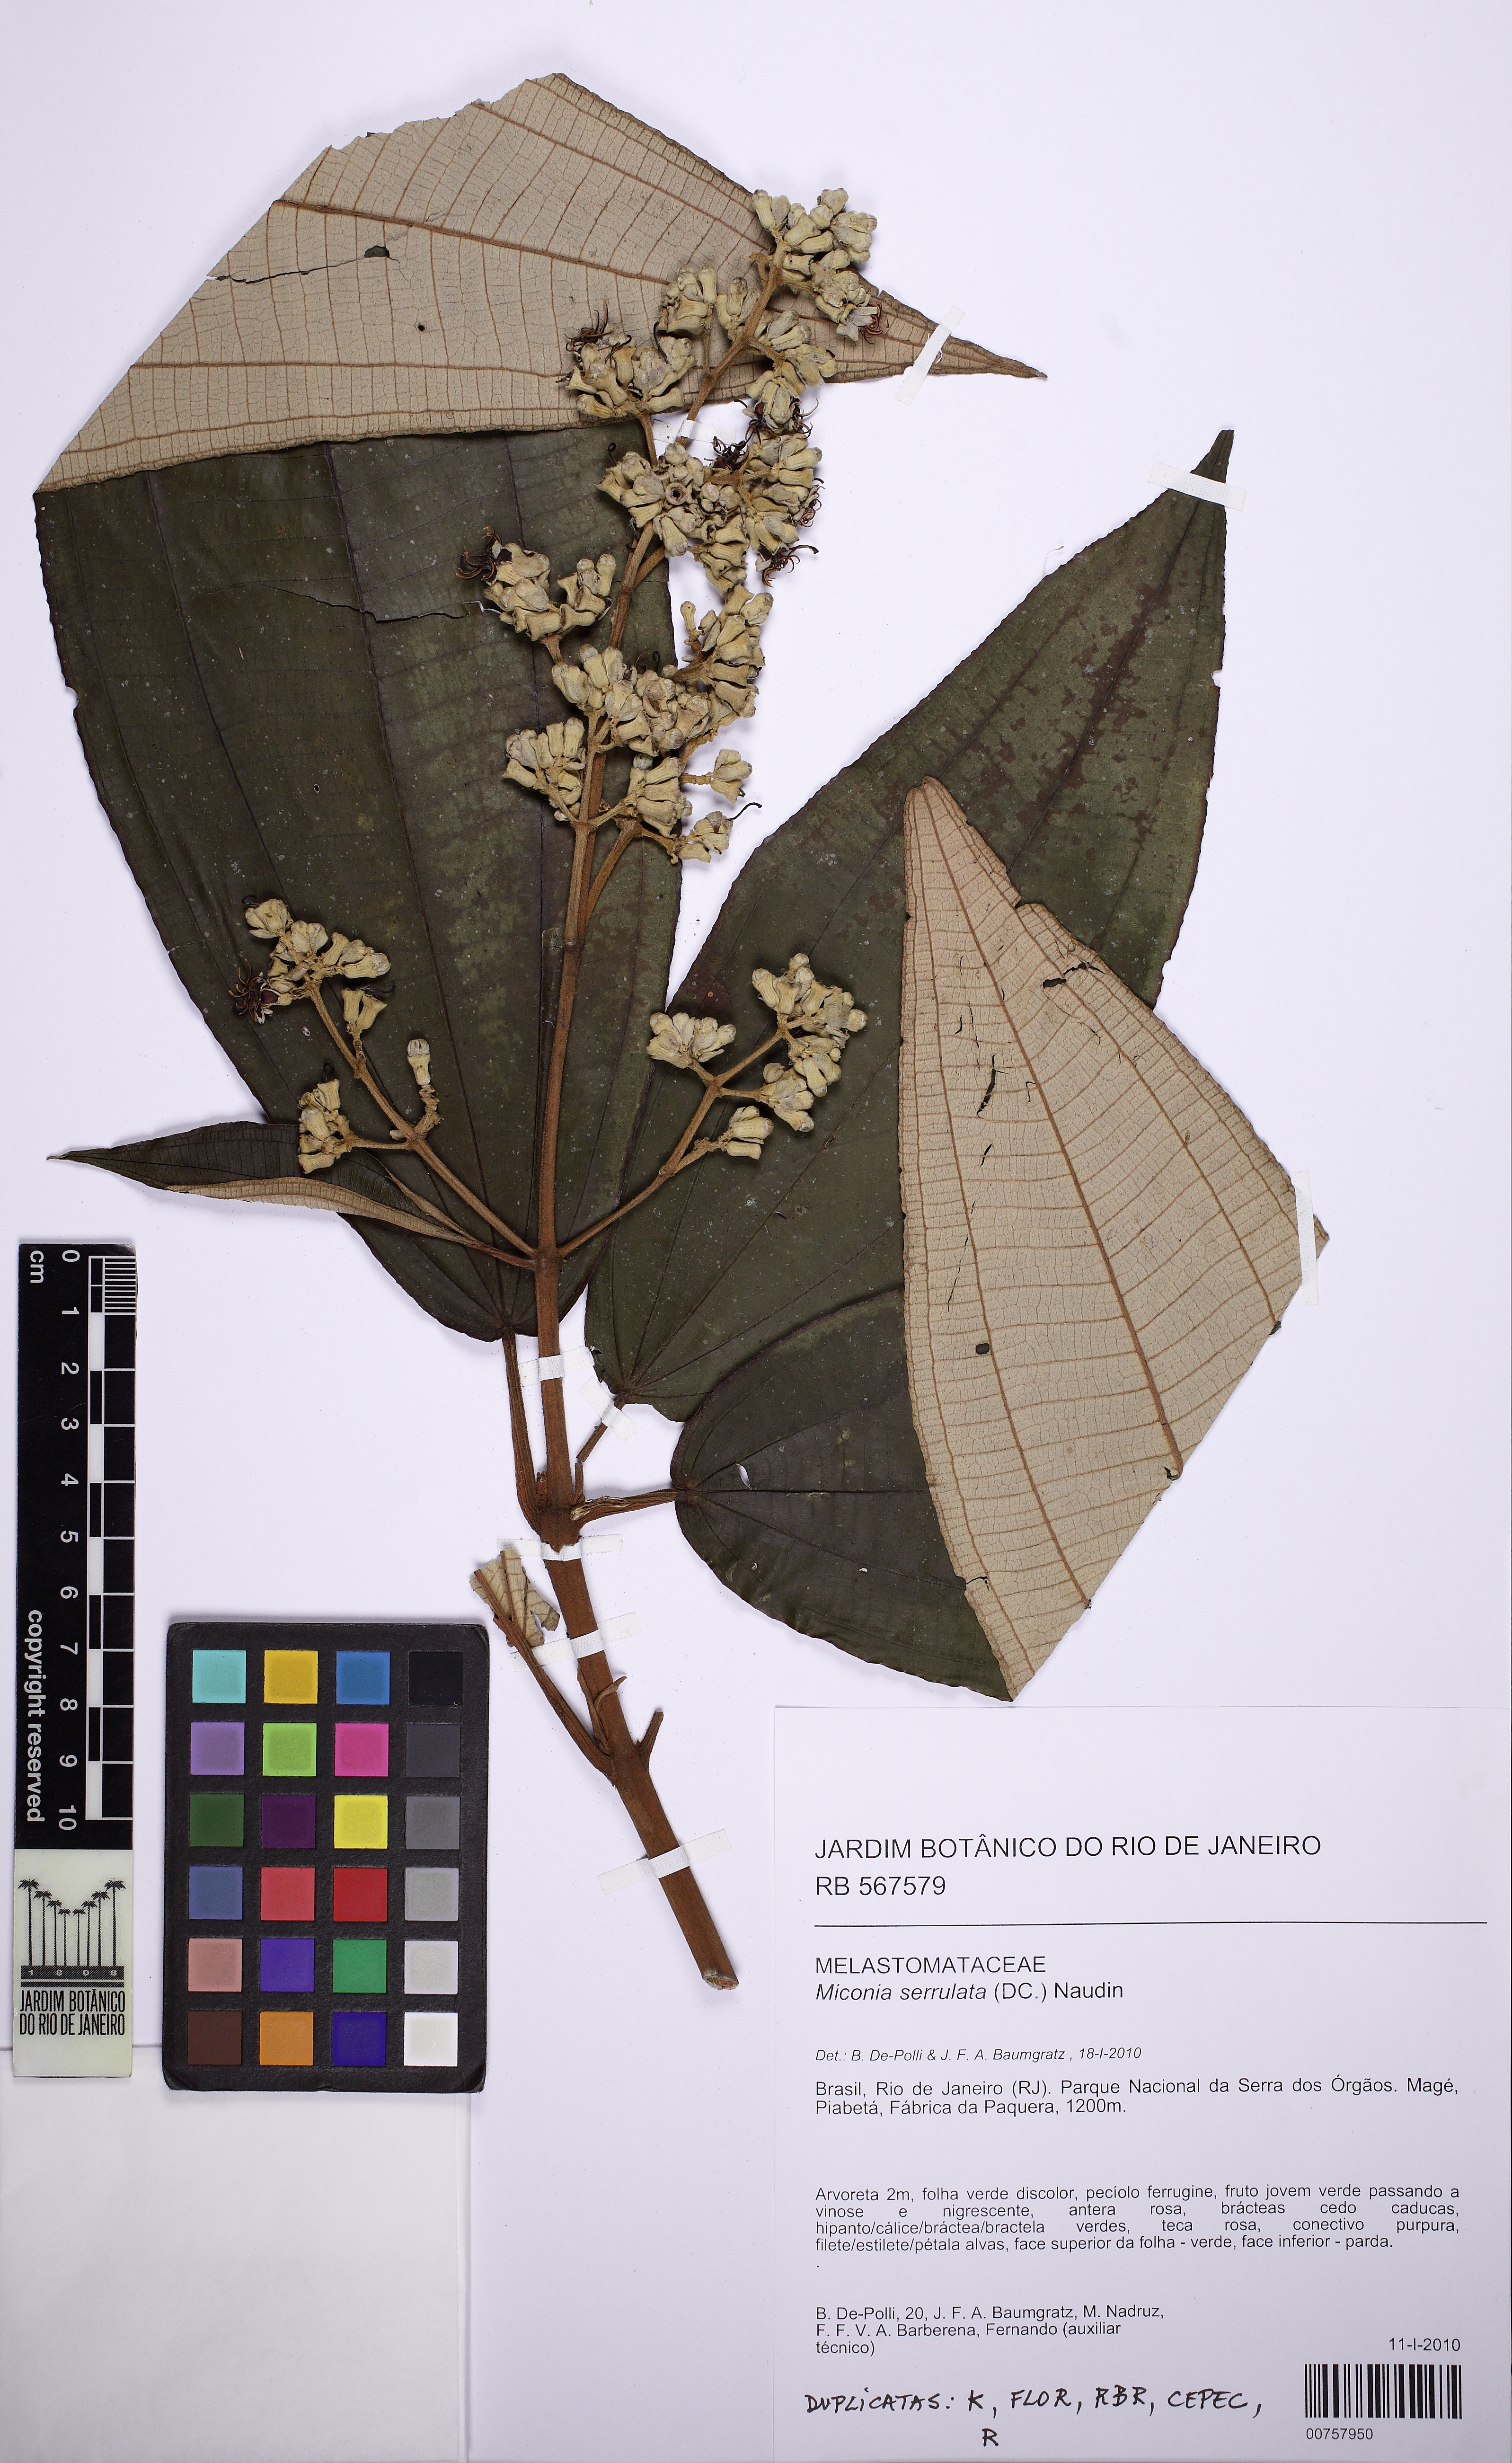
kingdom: Plantae
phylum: Tracheophyta
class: Magnoliopsida
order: Myrtales
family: Melastomataceae
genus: Miconia
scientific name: Miconia serrulata
